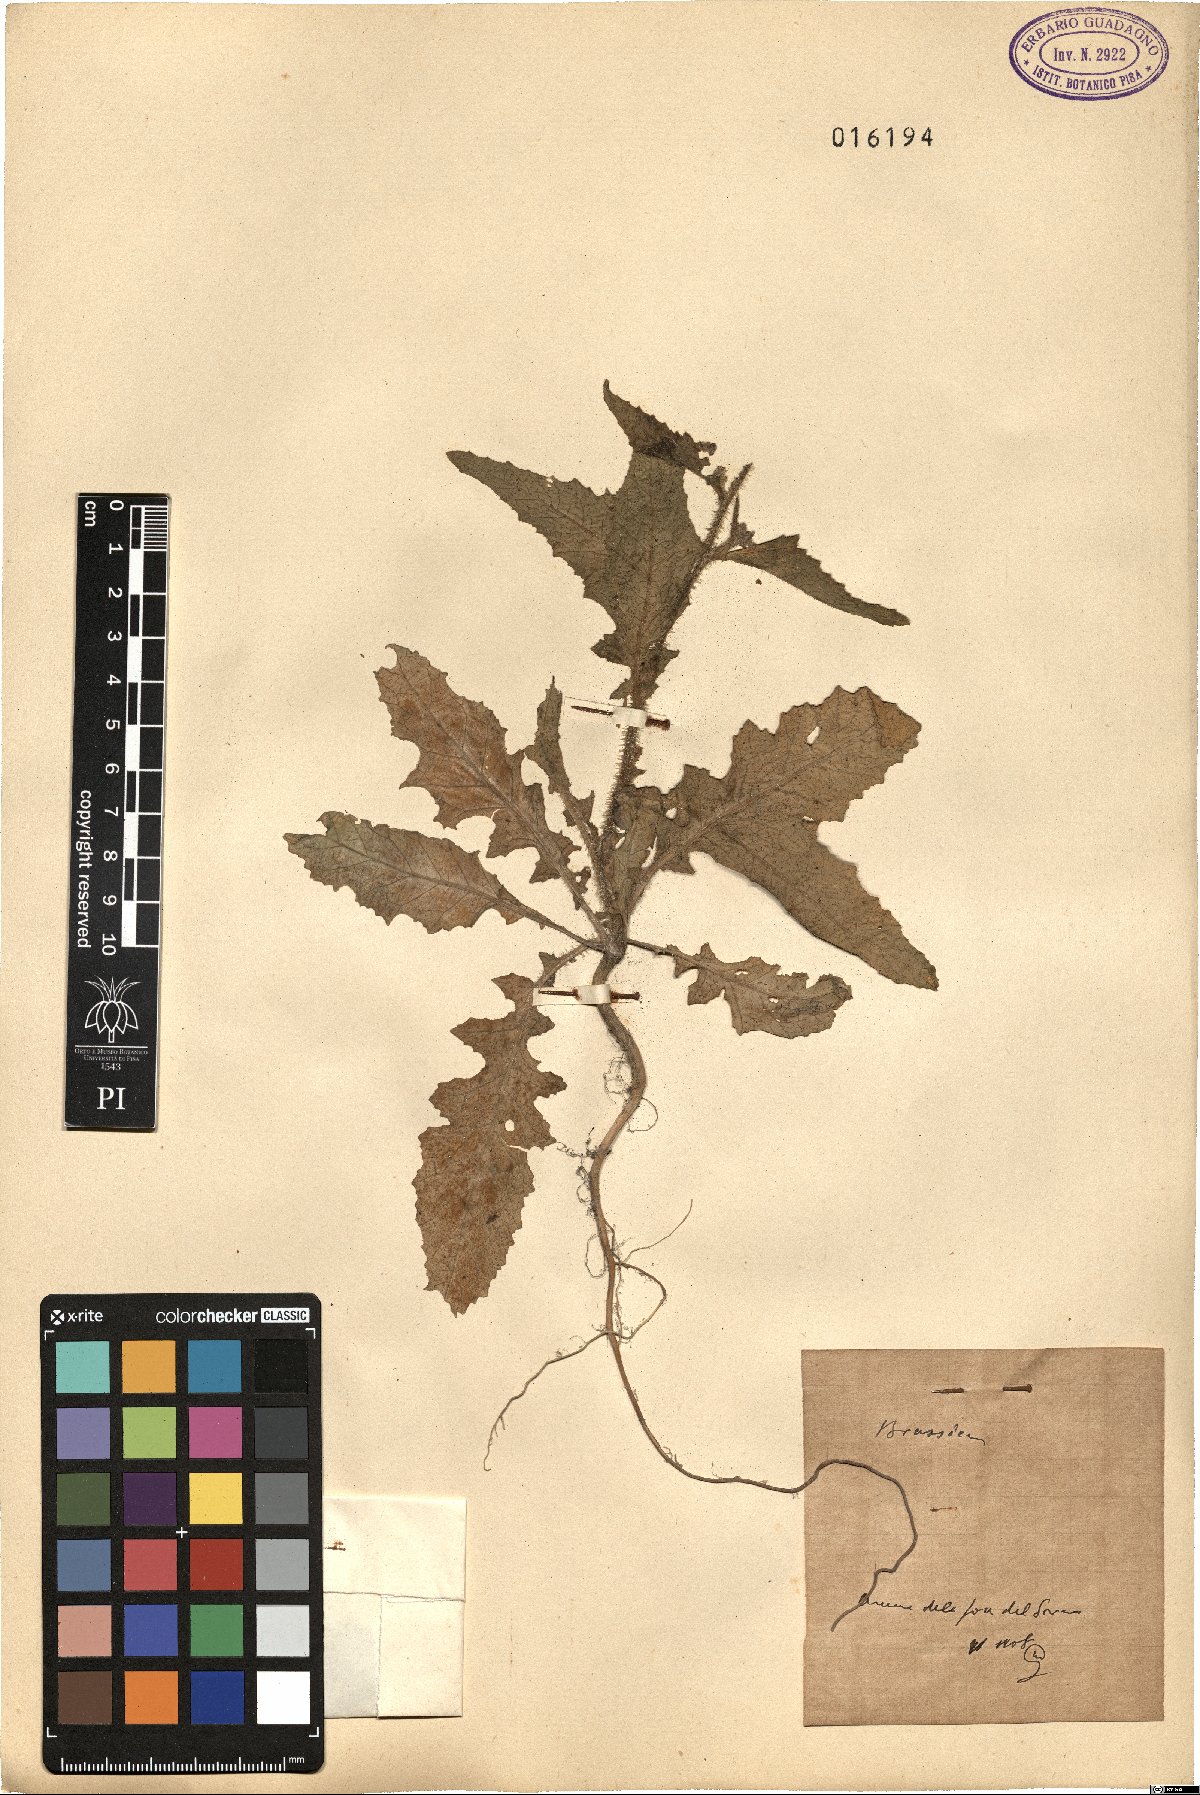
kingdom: Plantae
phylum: Tracheophyta
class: Magnoliopsida
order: Brassicales
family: Brassicaceae
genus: Brassica
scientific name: Brassica
